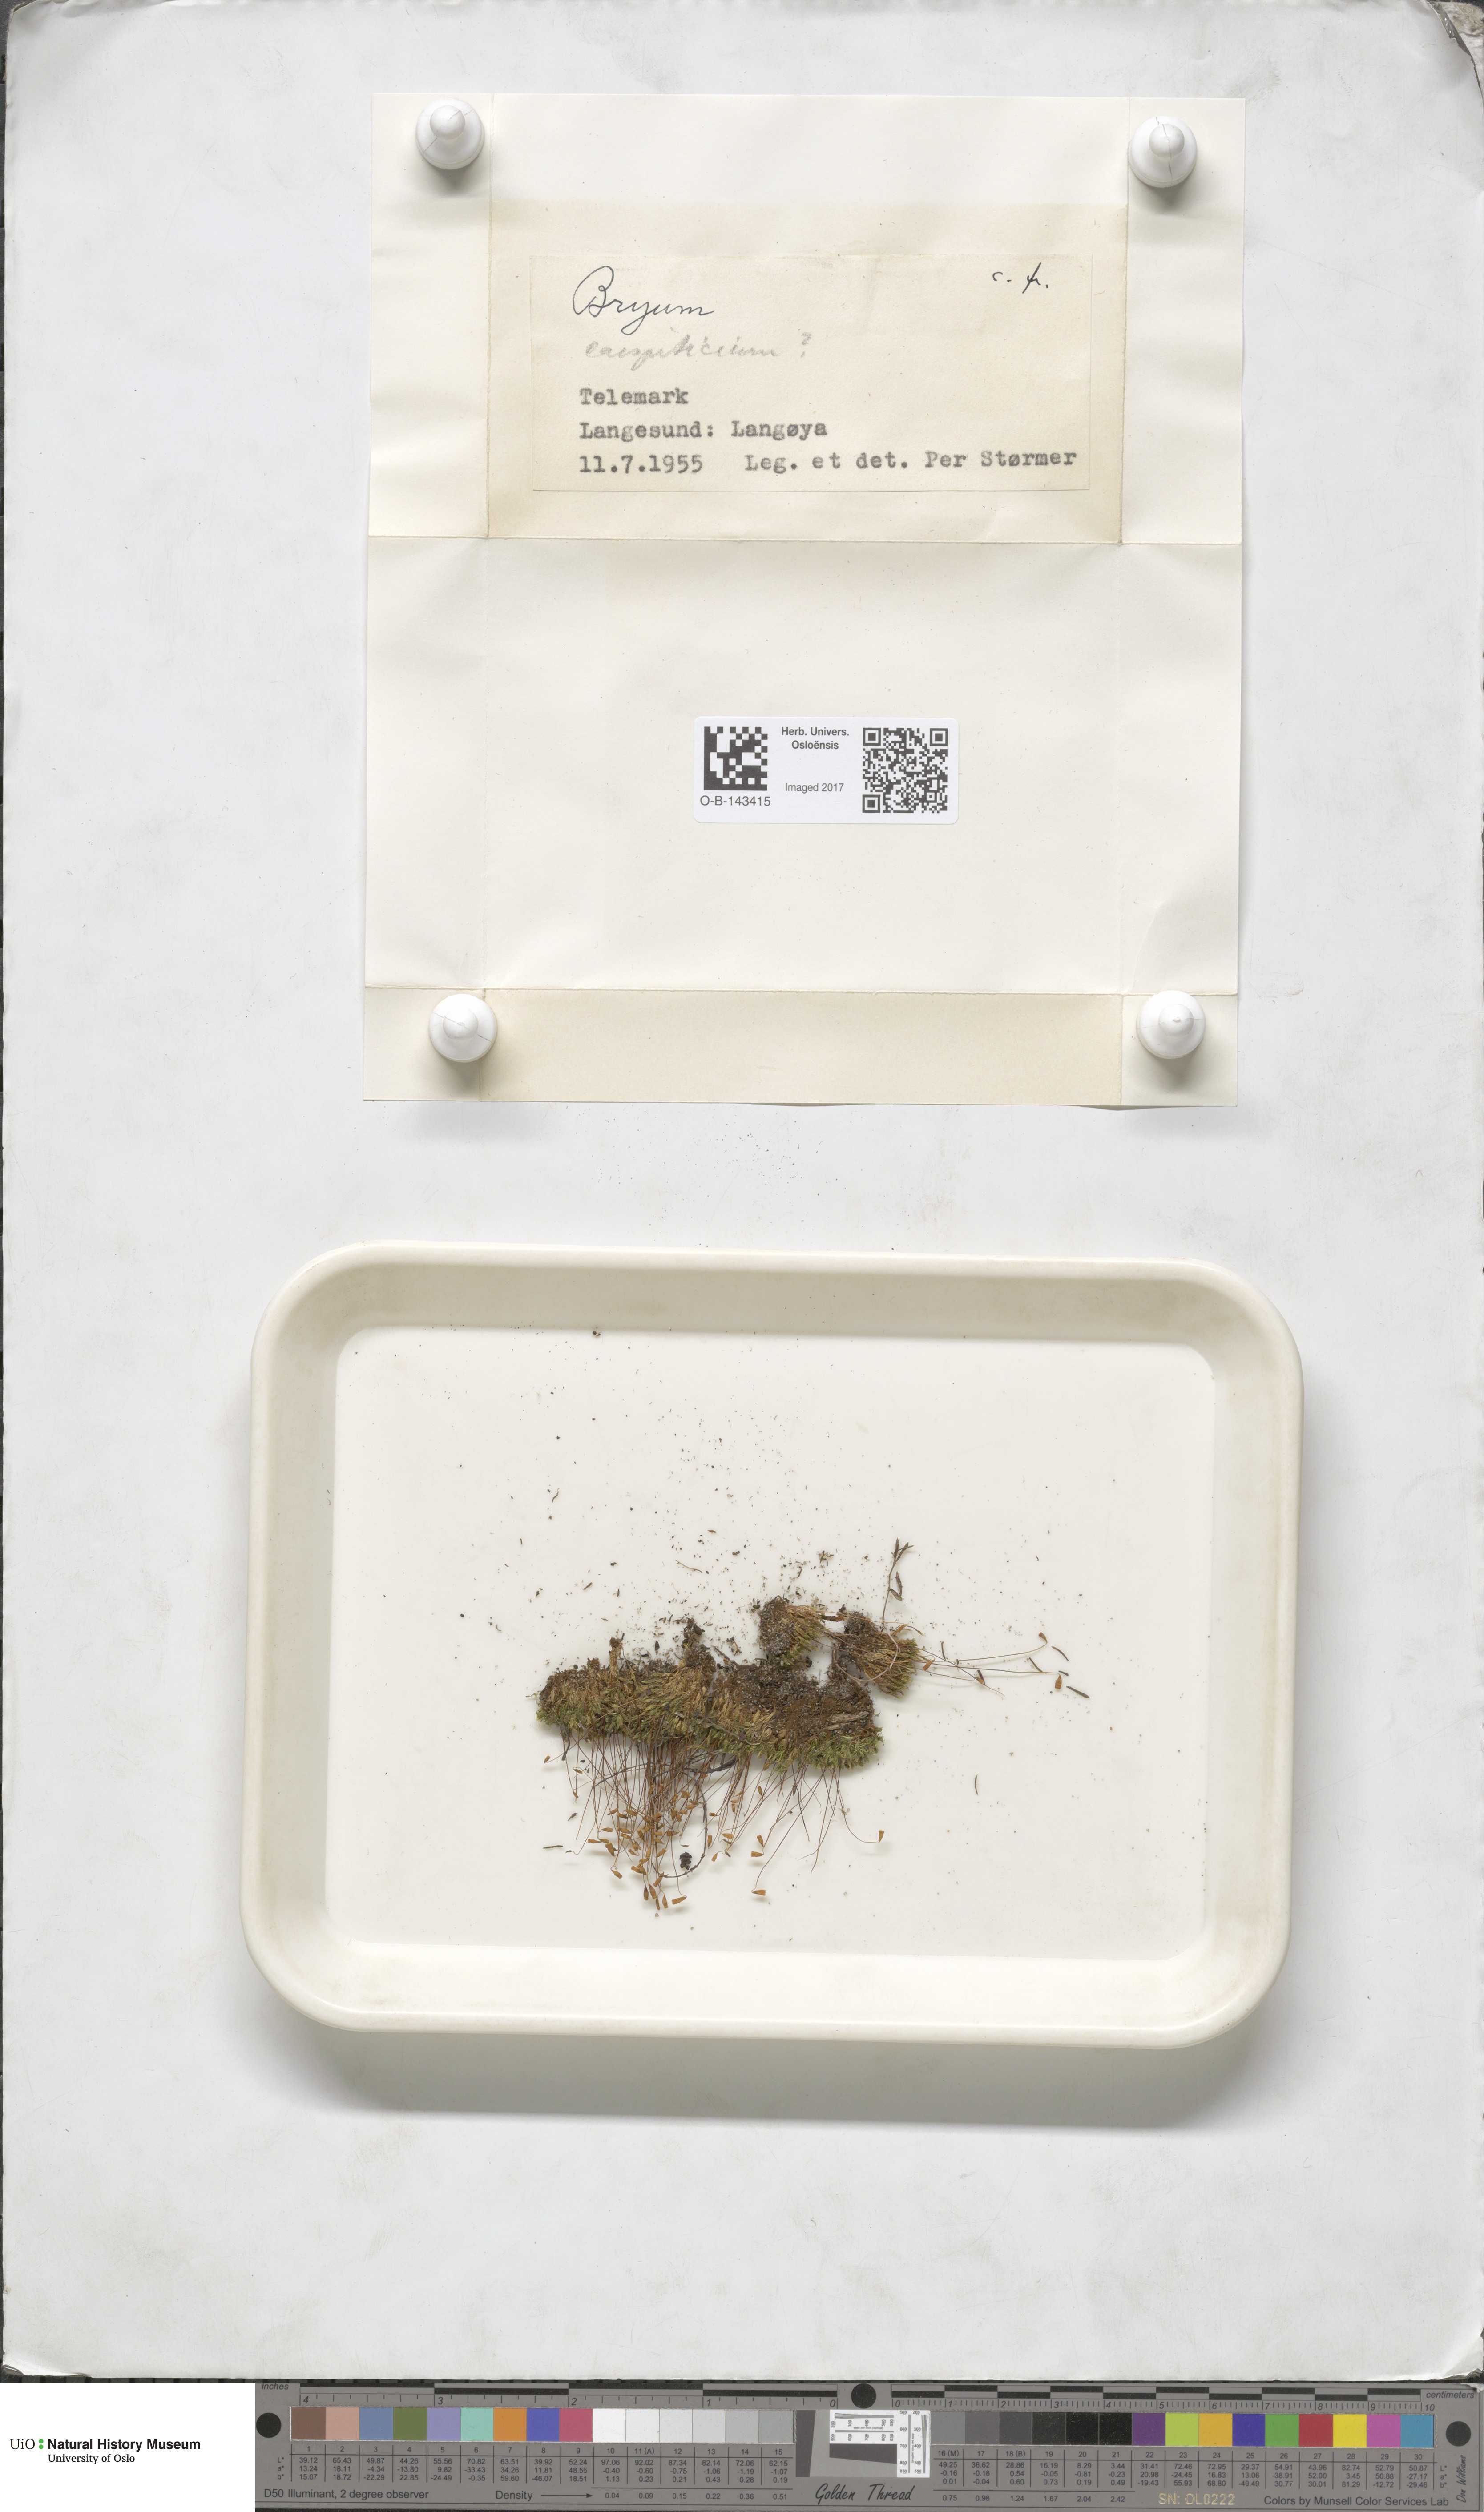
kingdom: Plantae
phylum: Bryophyta
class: Bryopsida
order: Bryales
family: Bryaceae
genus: Bryum
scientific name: Bryum
